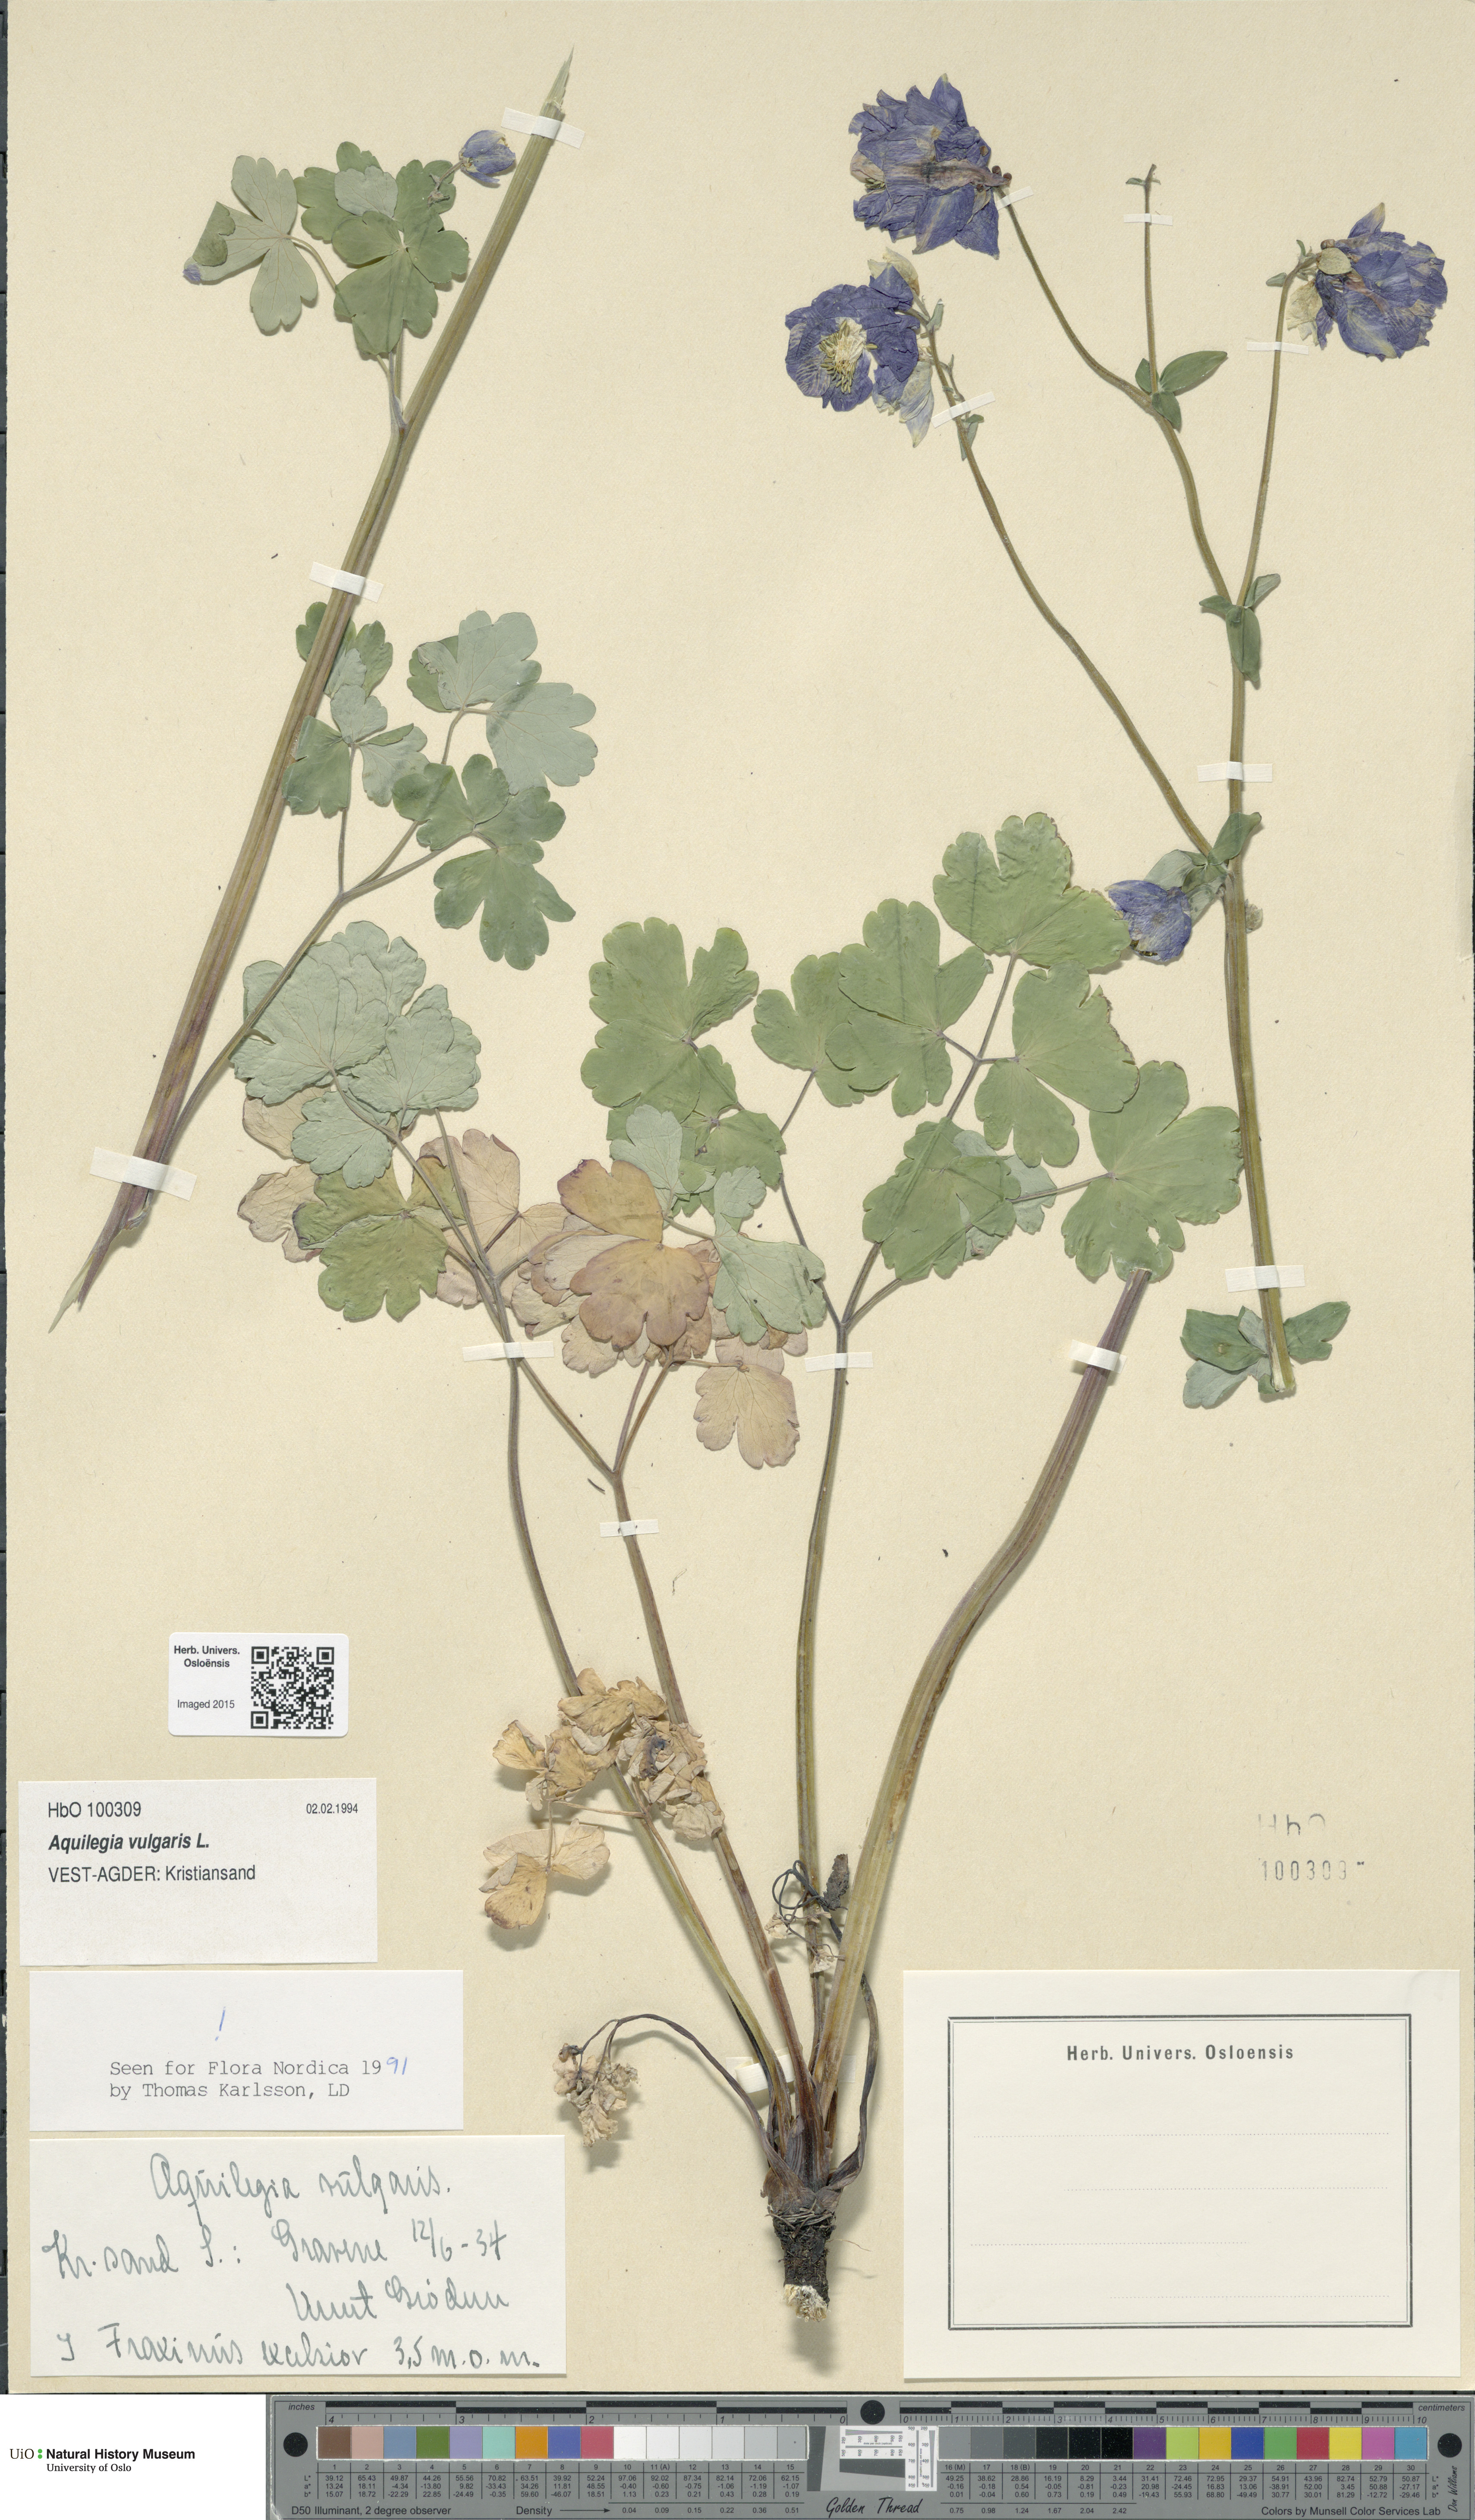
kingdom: Plantae
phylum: Tracheophyta
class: Magnoliopsida
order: Ranunculales
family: Ranunculaceae
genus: Aquilegia
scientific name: Aquilegia vulgaris
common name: Columbine
